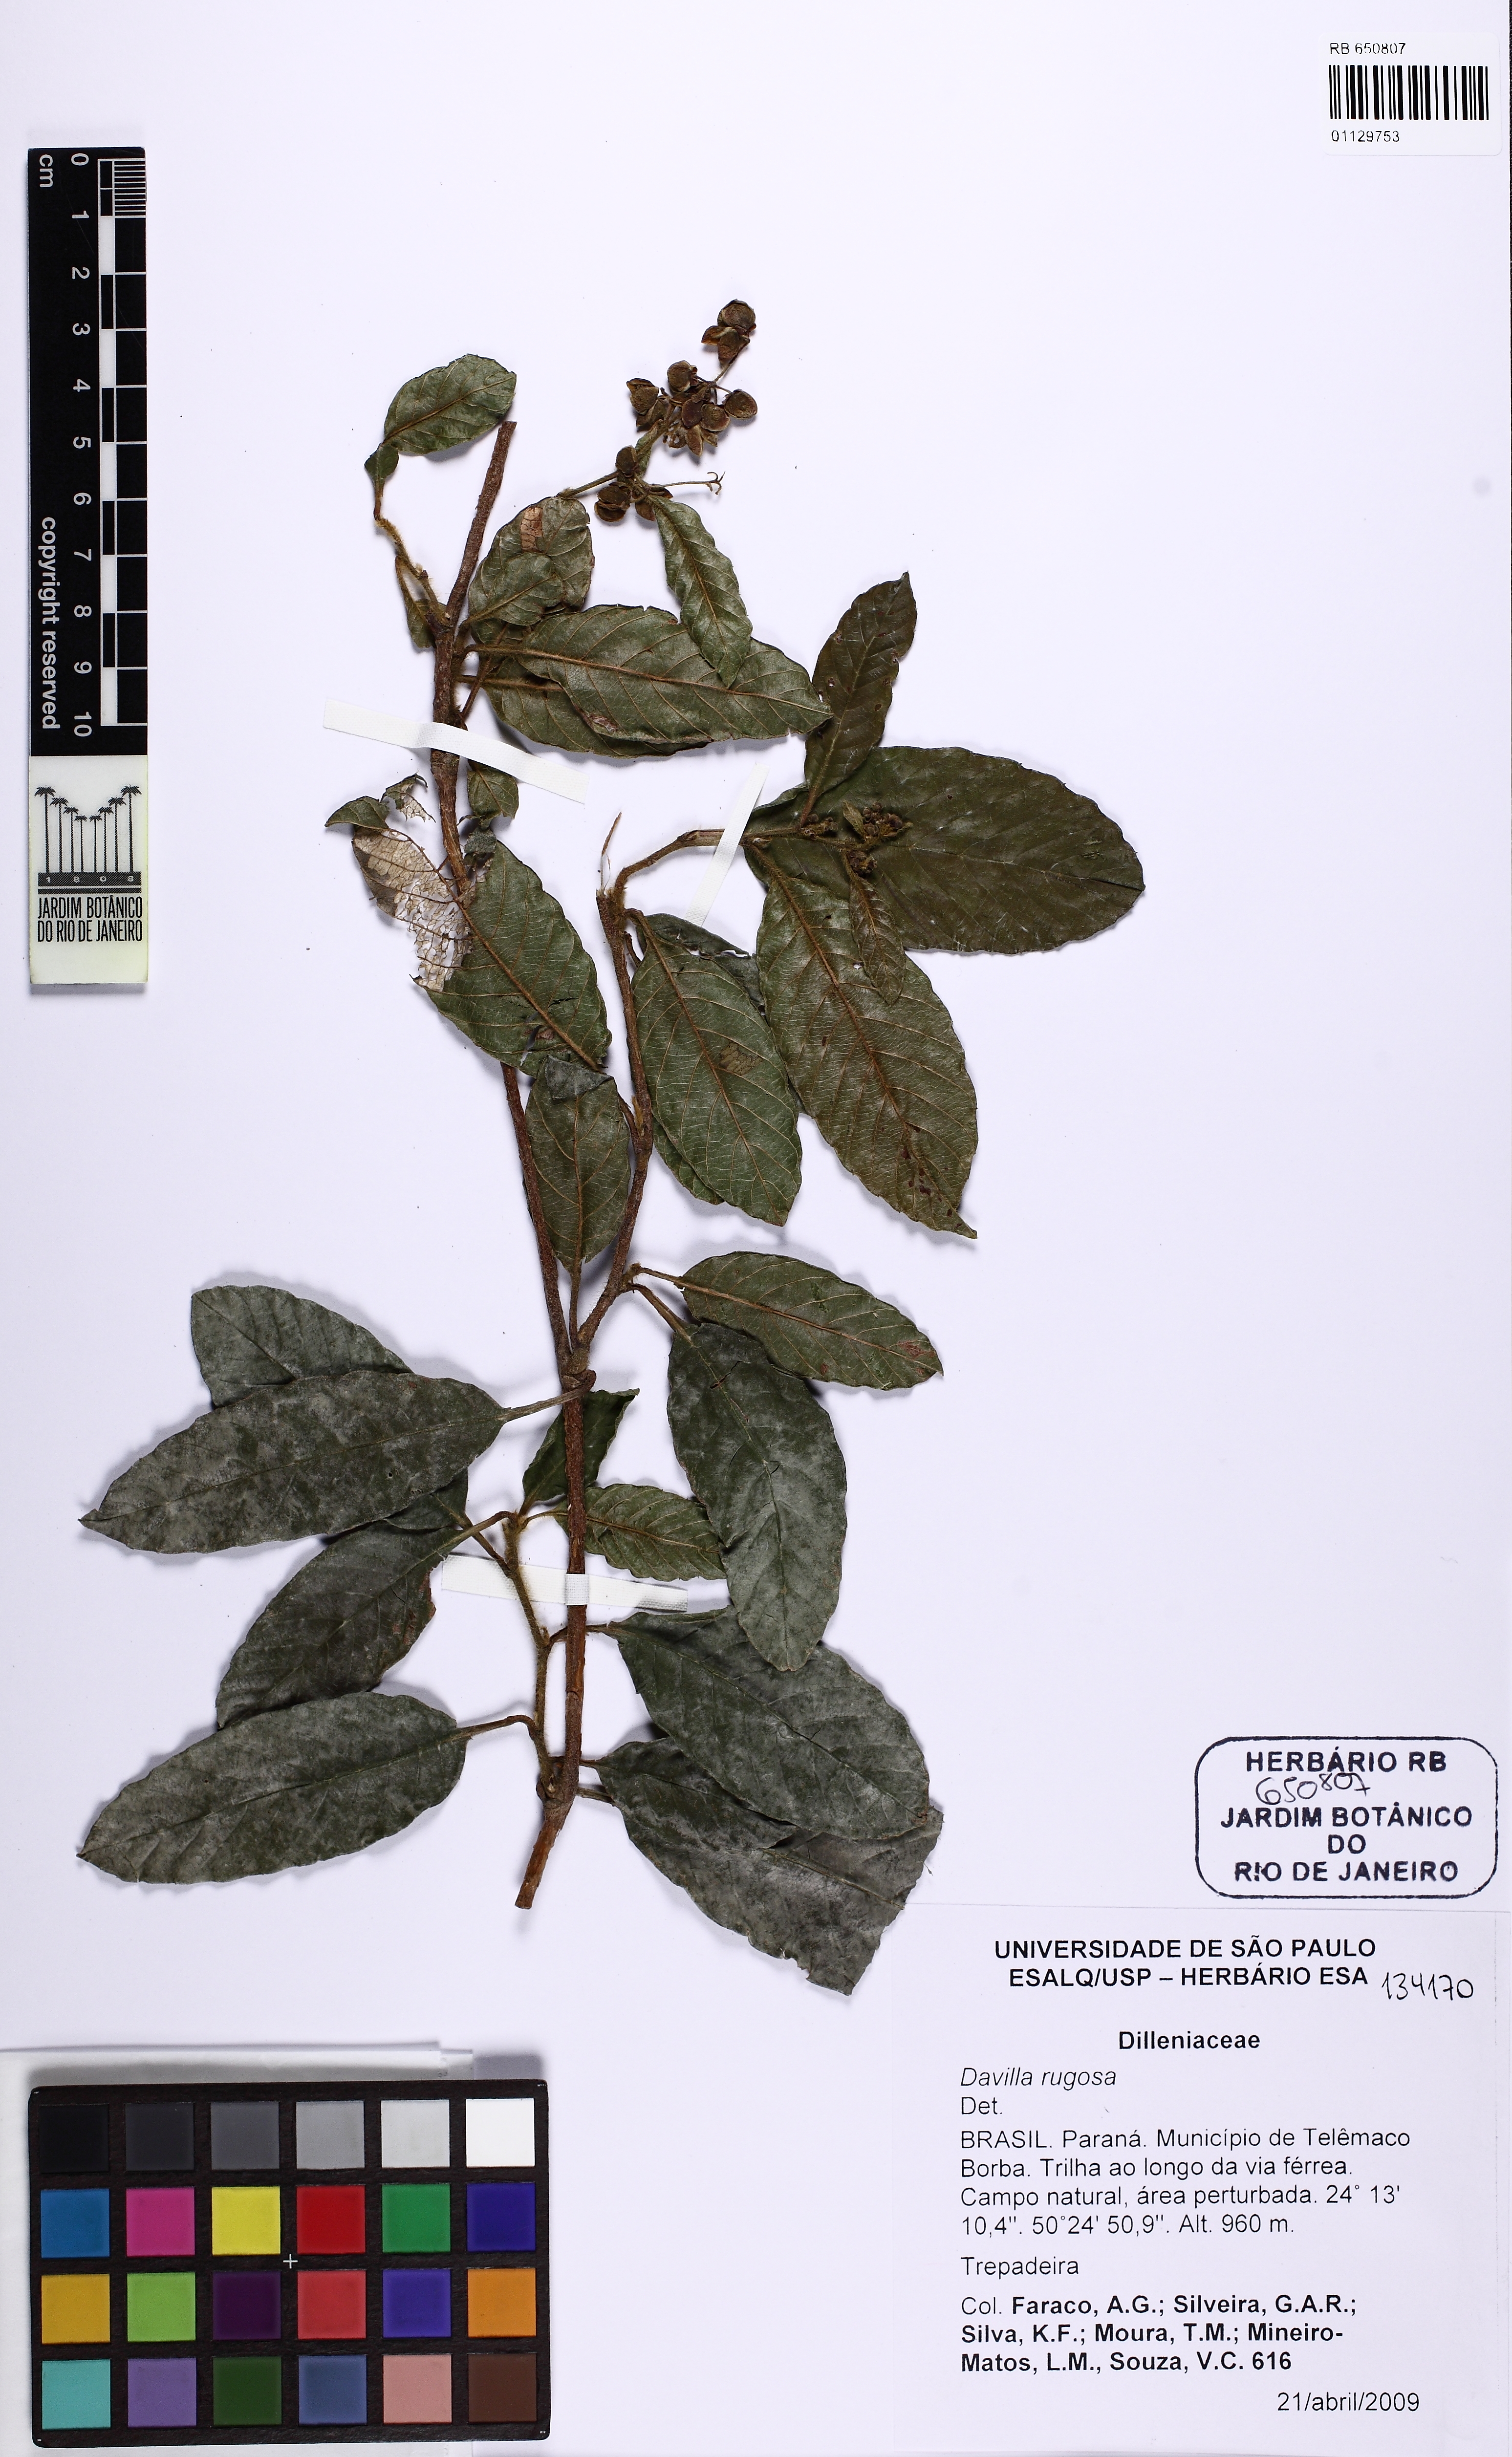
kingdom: Plantae
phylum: Tracheophyta
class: Magnoliopsida
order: Dilleniales
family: Dilleniaceae
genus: Davilla
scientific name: Davilla rugosa
